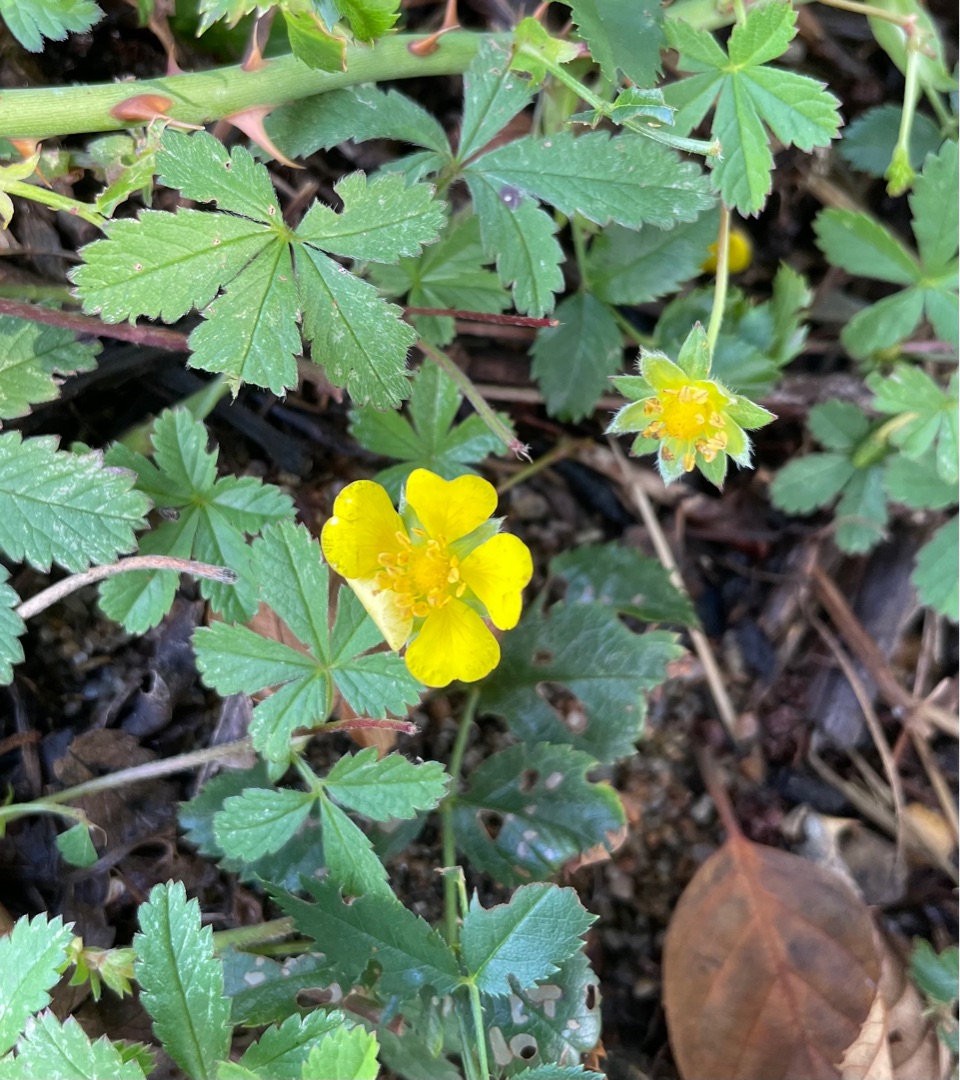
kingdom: Plantae
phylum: Tracheophyta
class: Magnoliopsida
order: Rosales
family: Rosaceae
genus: Potentilla
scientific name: Potentilla reptans
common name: Krybende potentil
